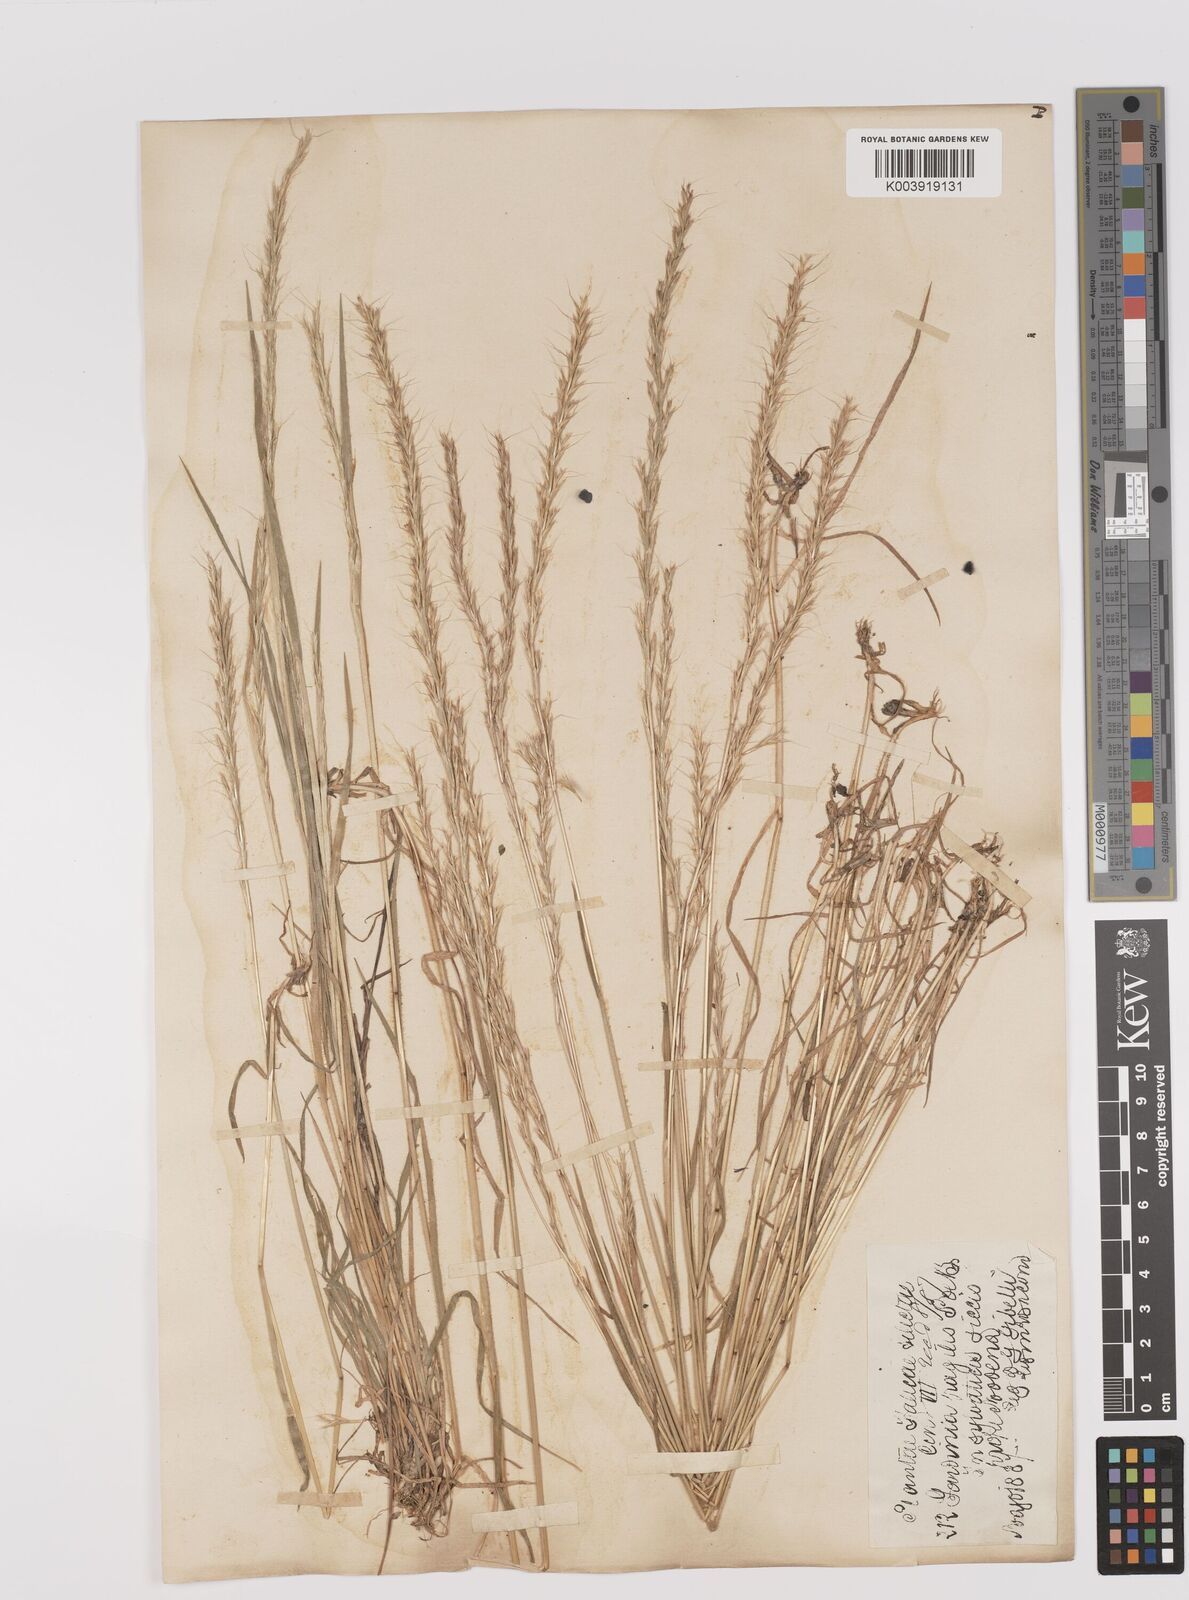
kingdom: Plantae
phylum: Tracheophyta
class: Liliopsida
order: Poales
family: Poaceae
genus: Gaudinia
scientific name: Gaudinia fragilis
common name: French oat-grass
